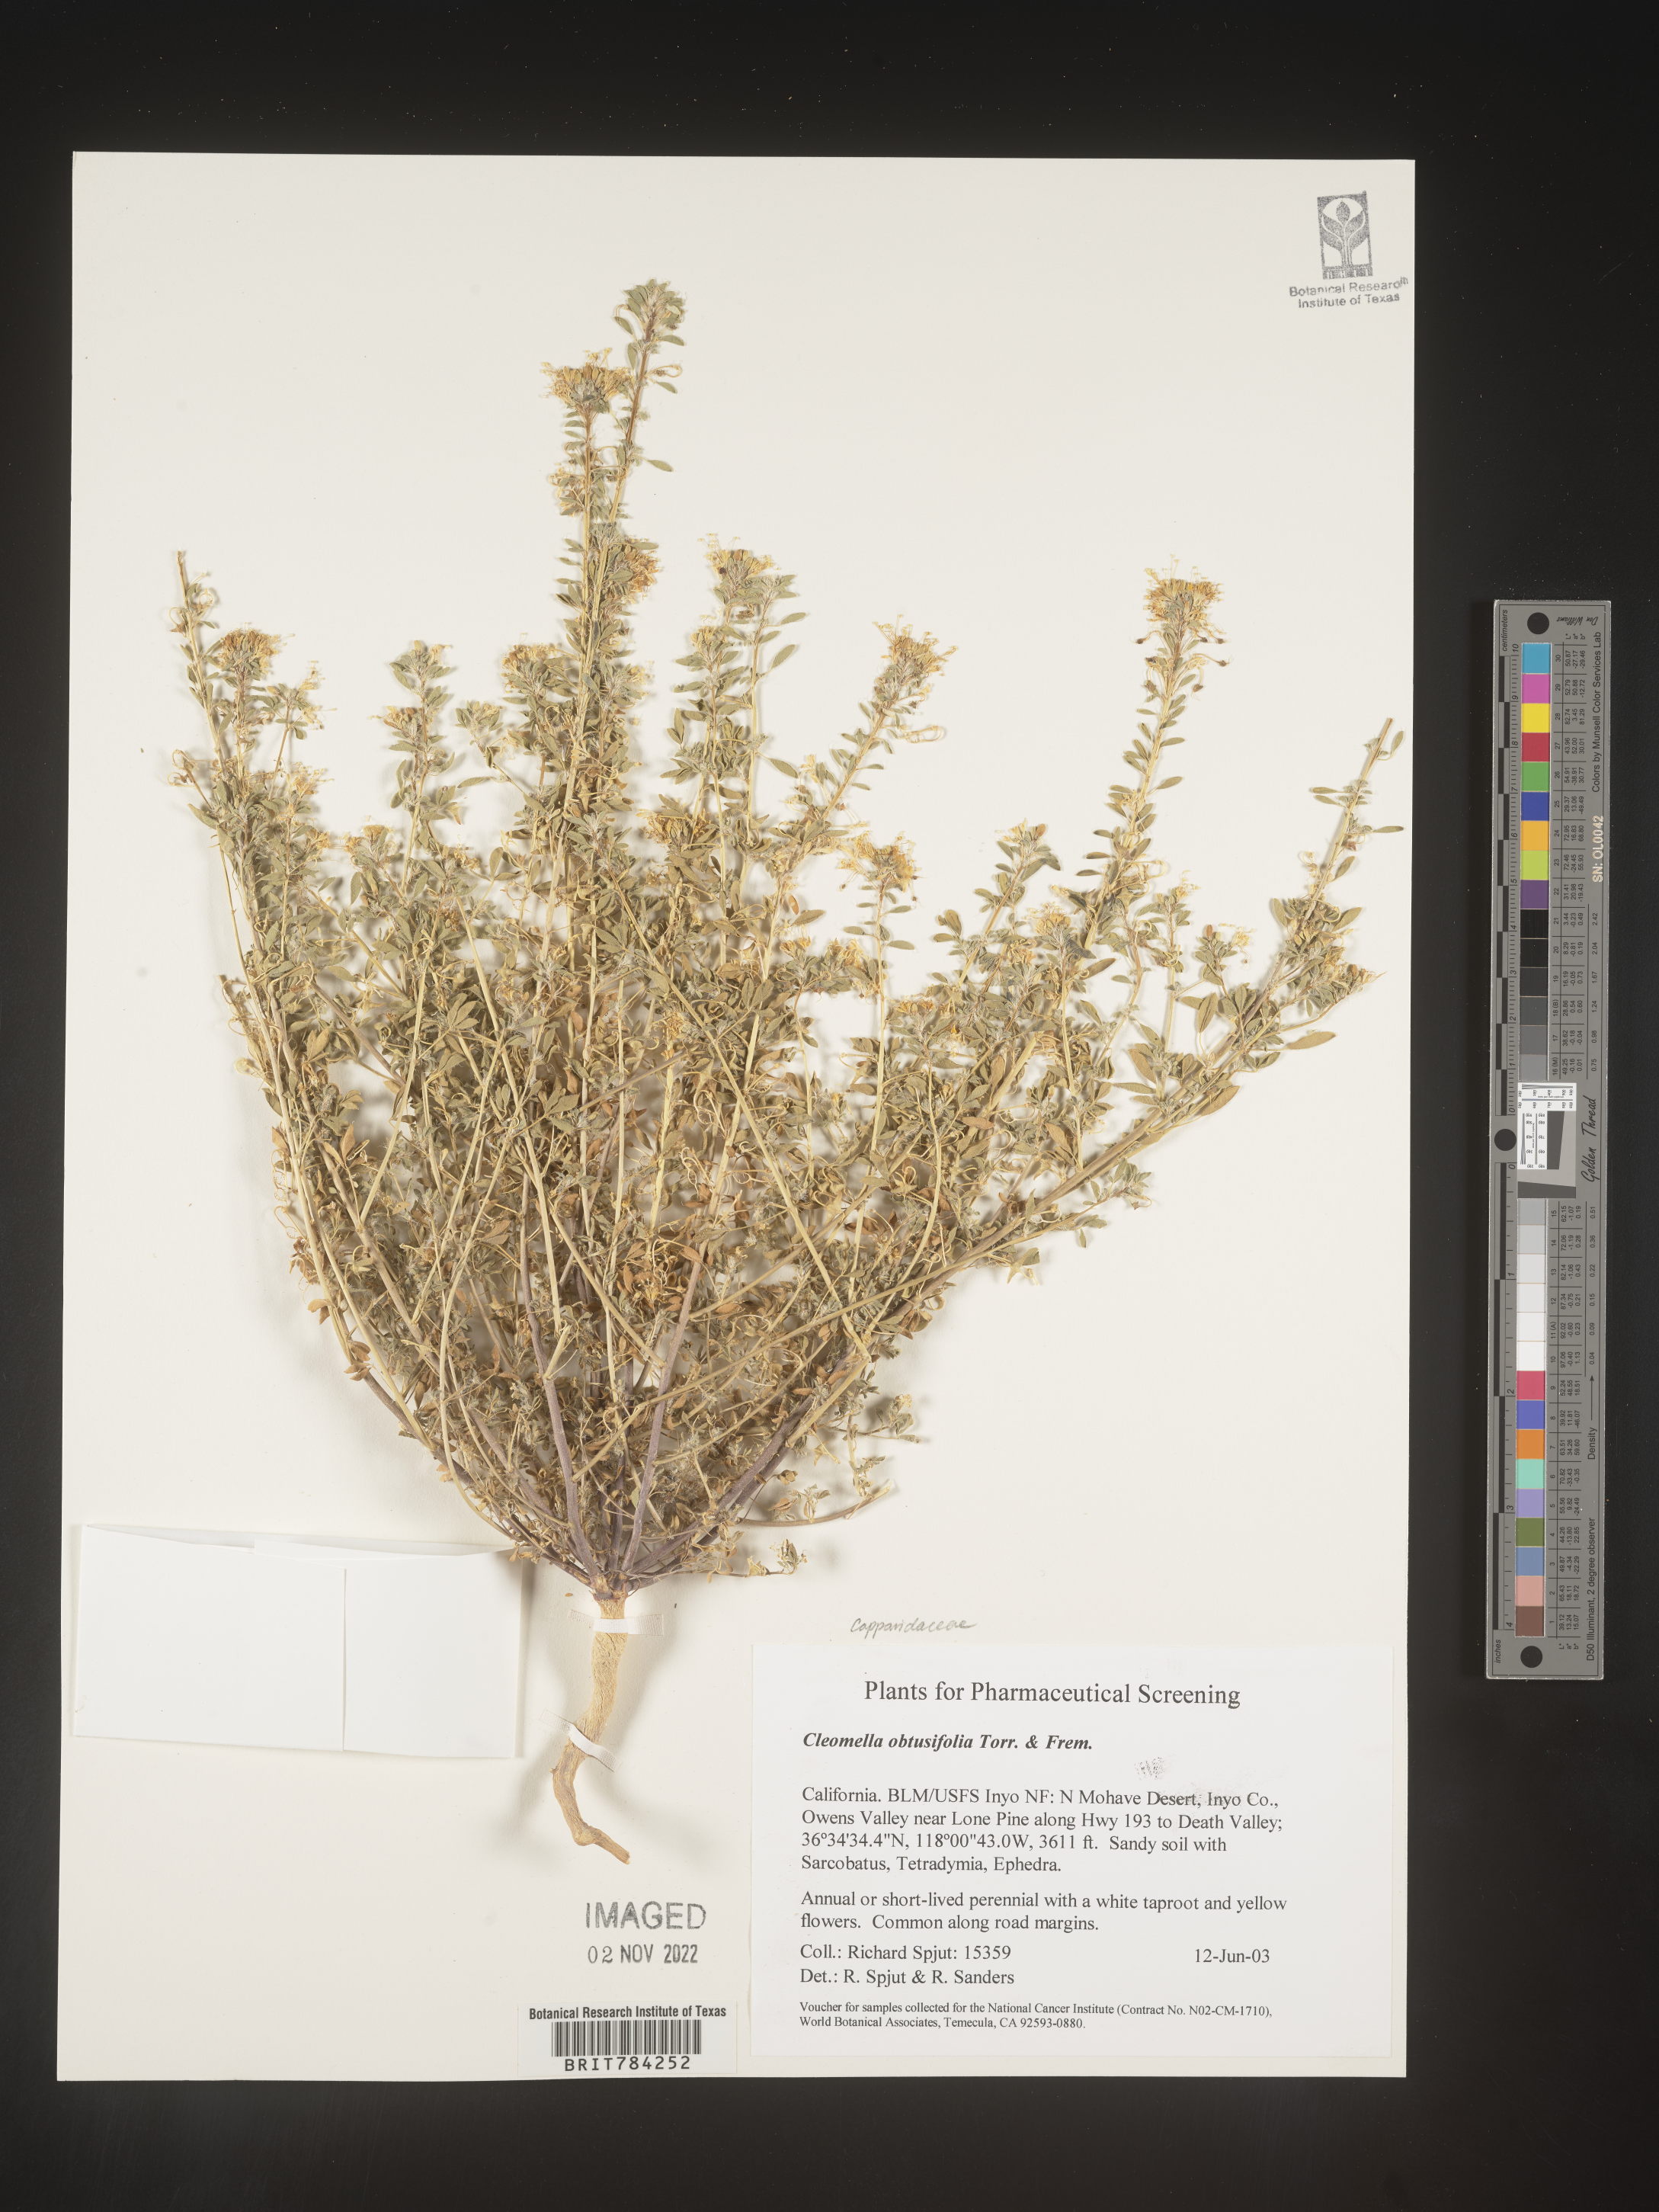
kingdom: Plantae
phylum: Tracheophyta
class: Magnoliopsida
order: Brassicales
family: Cleomaceae
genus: Cleomella
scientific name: Cleomella
